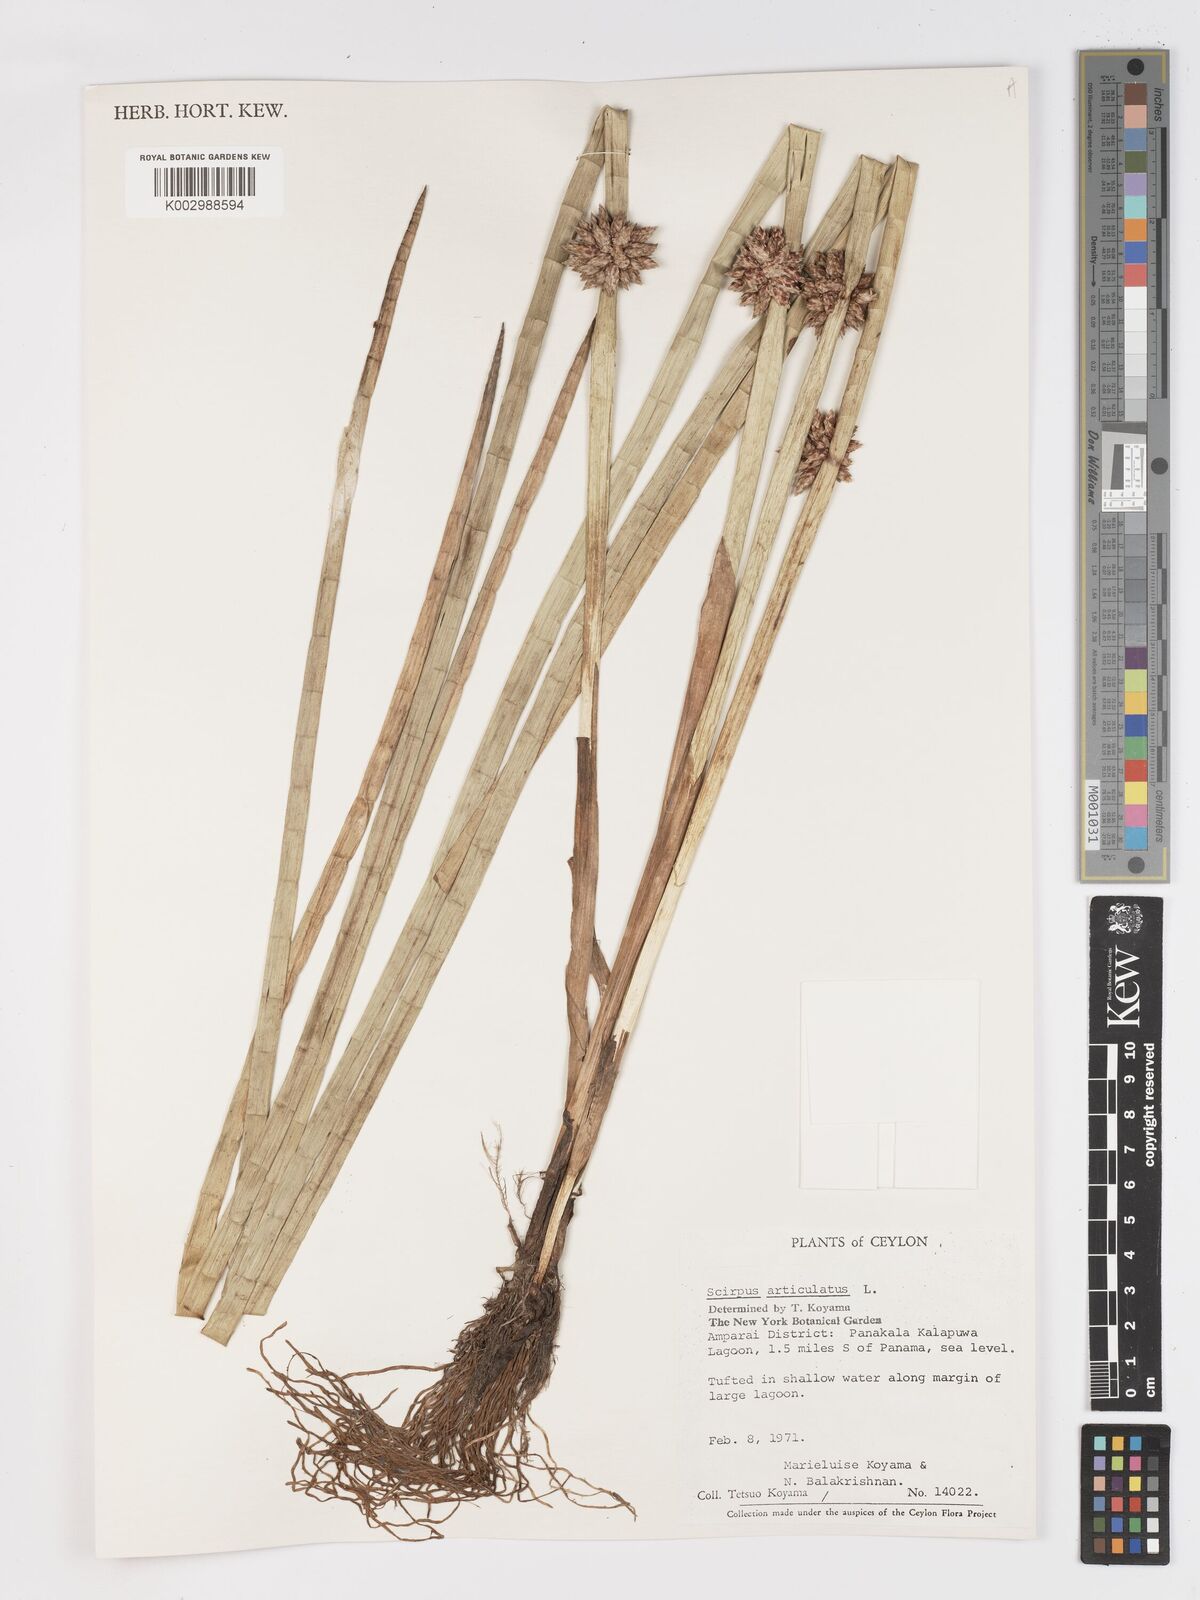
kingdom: Plantae
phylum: Tracheophyta
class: Liliopsida
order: Poales
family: Cyperaceae
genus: Schoenoplectiella
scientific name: Schoenoplectiella articulata
